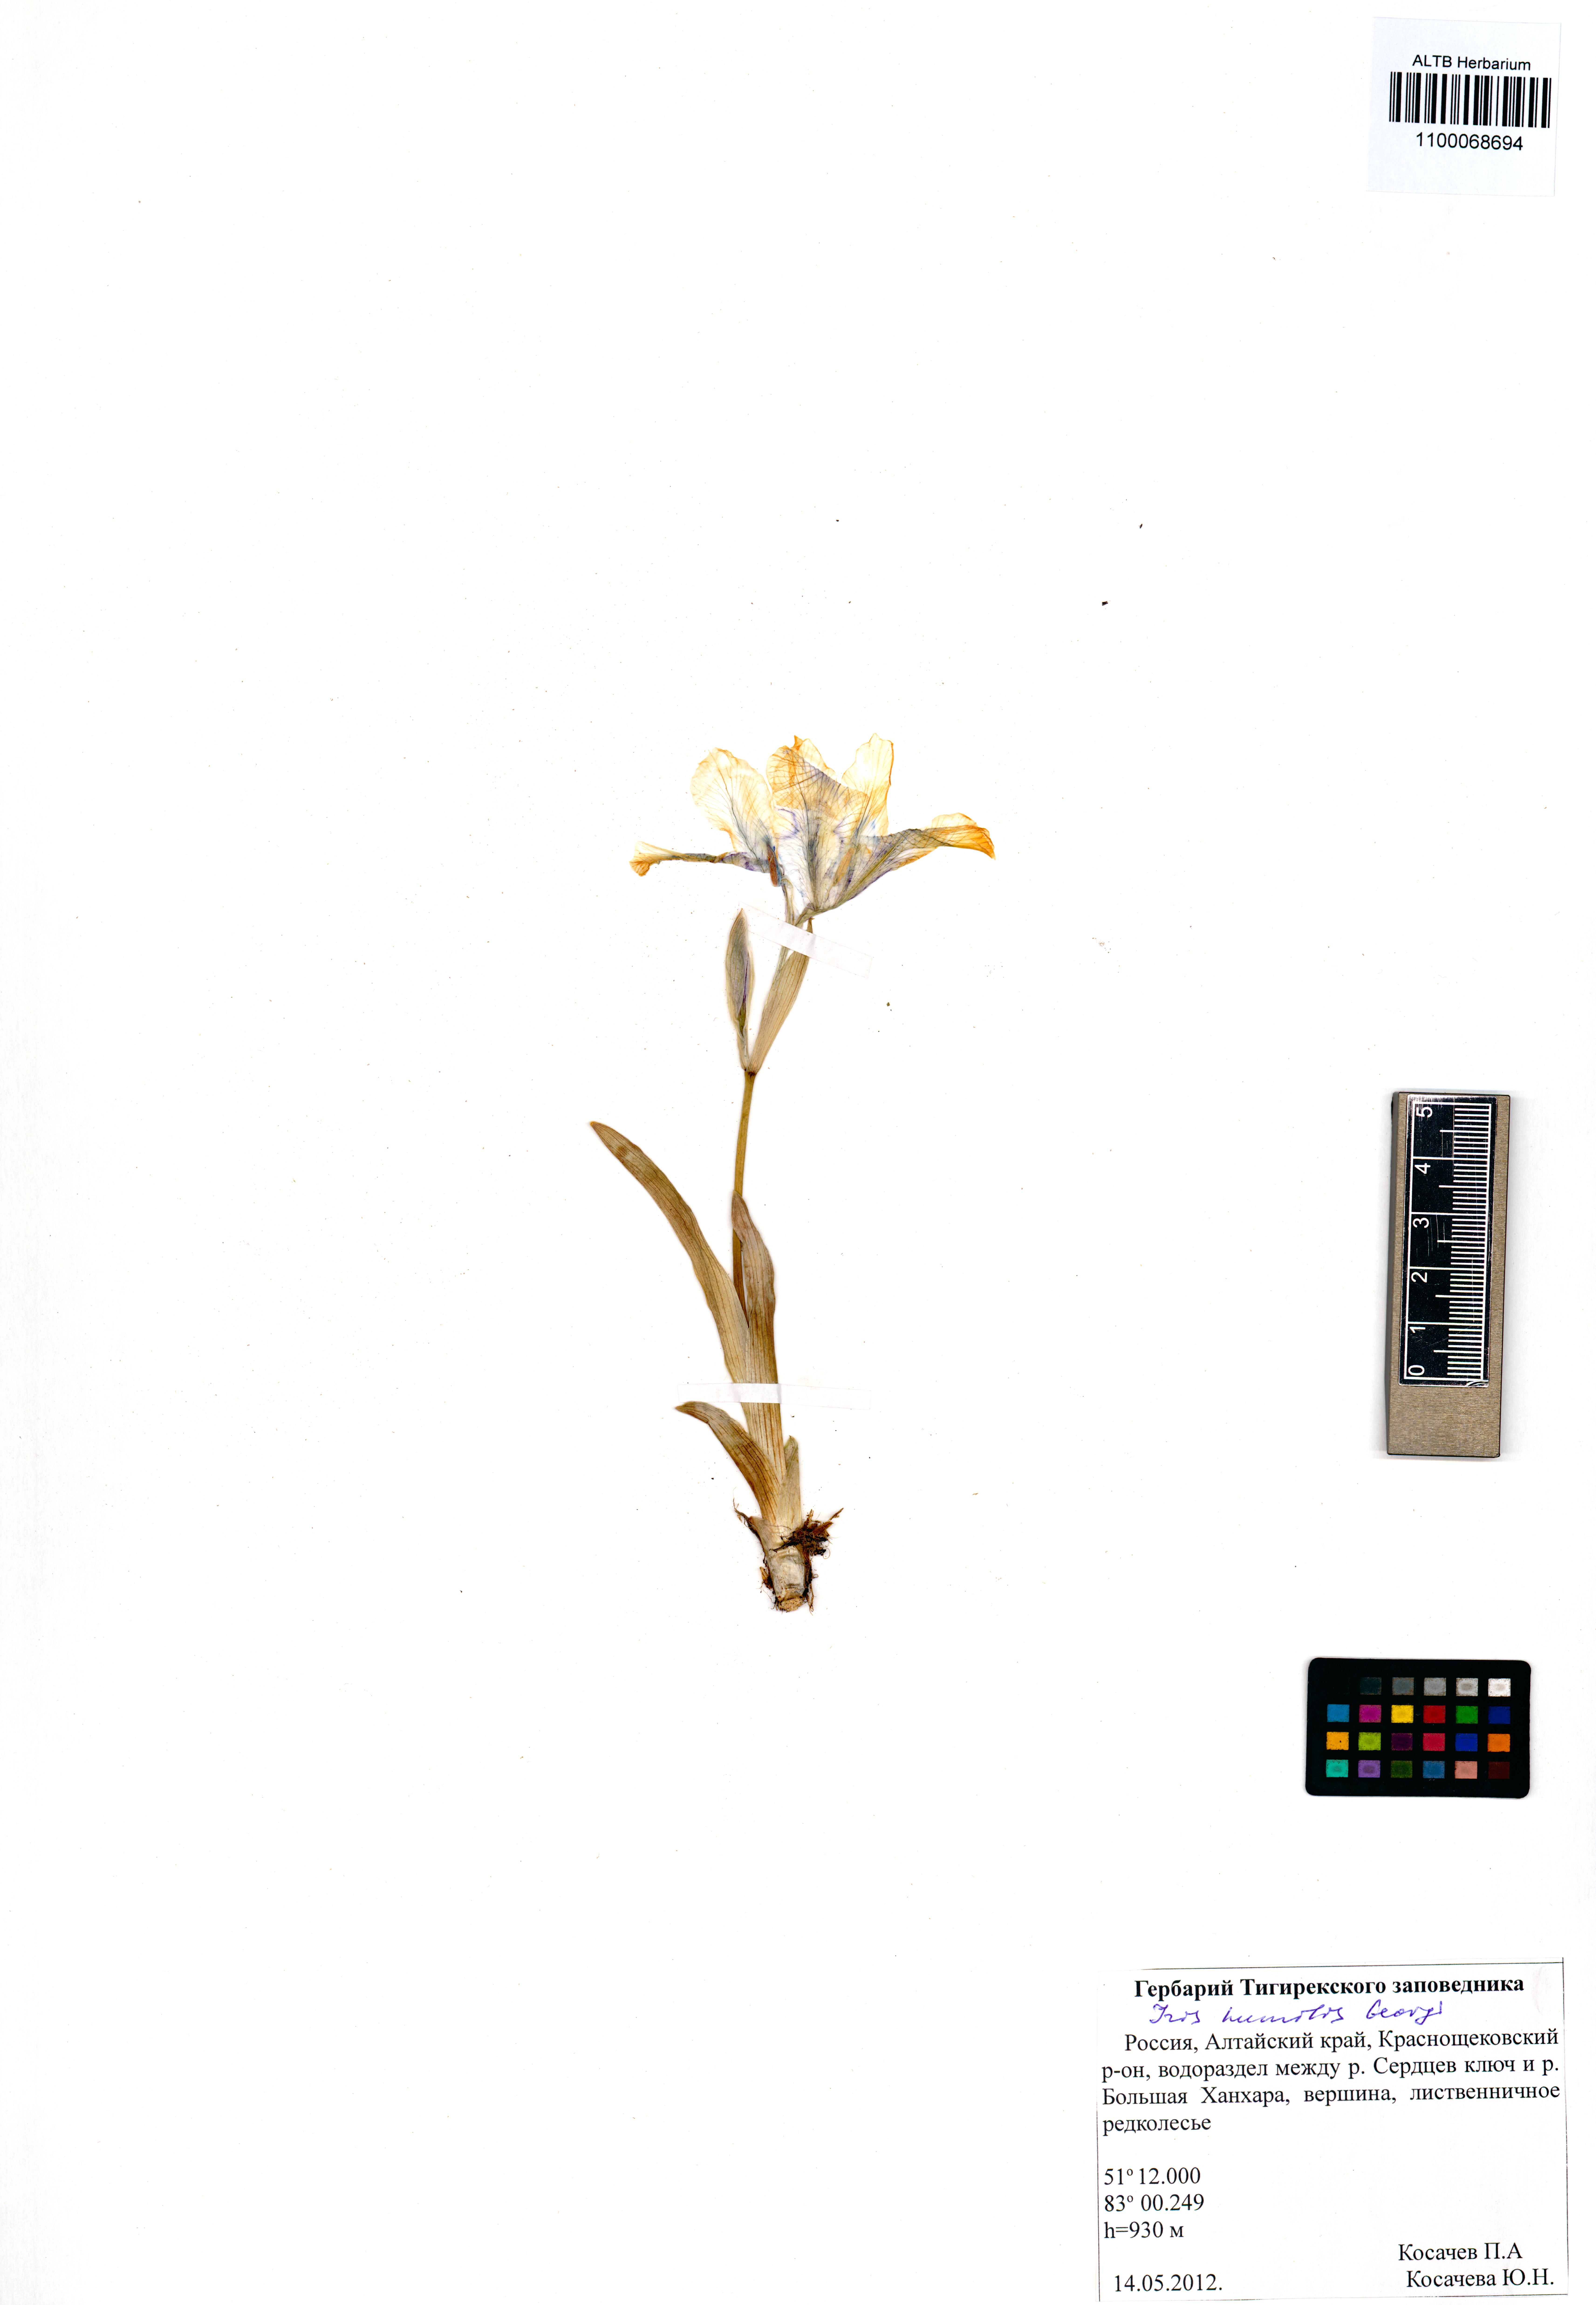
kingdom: Plantae
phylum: Tracheophyta
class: Liliopsida
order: Asparagales
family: Iridaceae
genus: Iris
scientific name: Iris humilis
